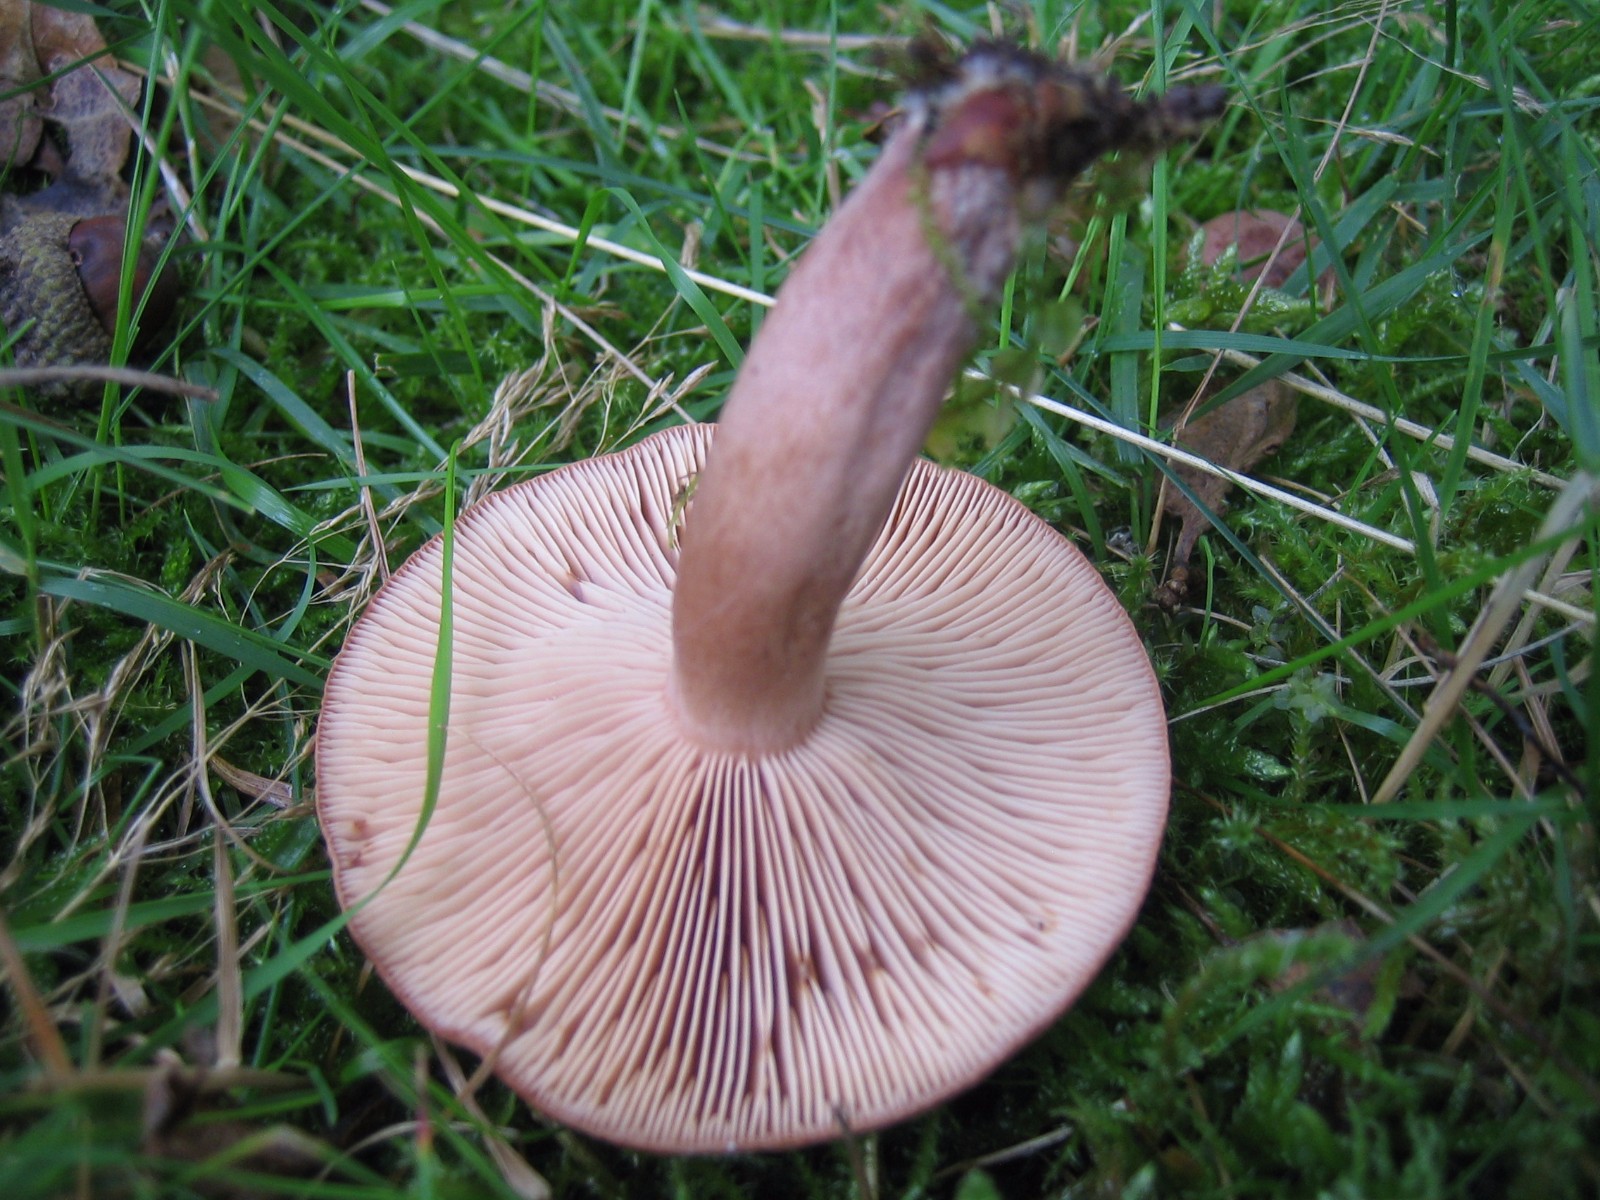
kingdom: Fungi
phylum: Basidiomycota
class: Agaricomycetes
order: Russulales
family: Russulaceae
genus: Lactarius
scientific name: Lactarius quietus
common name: ege-mælkehat
